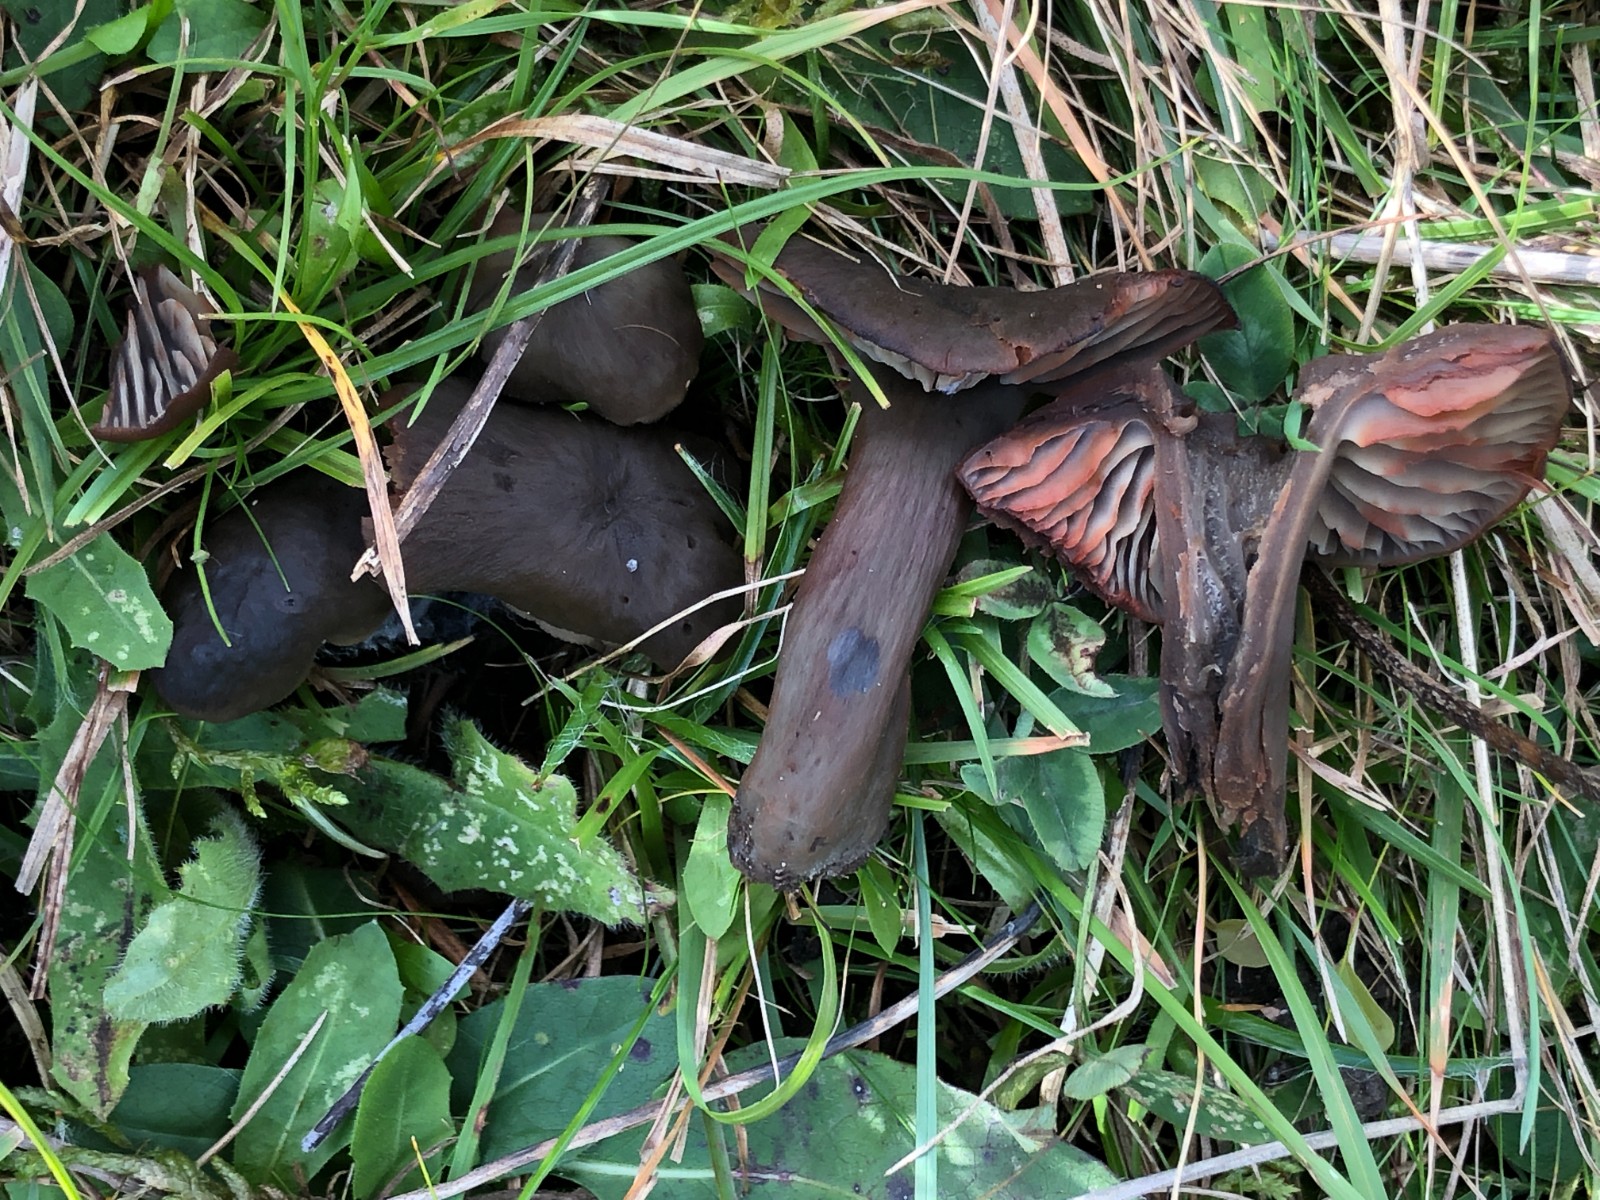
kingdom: Fungi
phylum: Basidiomycota
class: Agaricomycetes
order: Agaricales
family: Hygrophoraceae
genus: Neohygrocybe
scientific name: Neohygrocybe ovina
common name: rødmende vokshat
